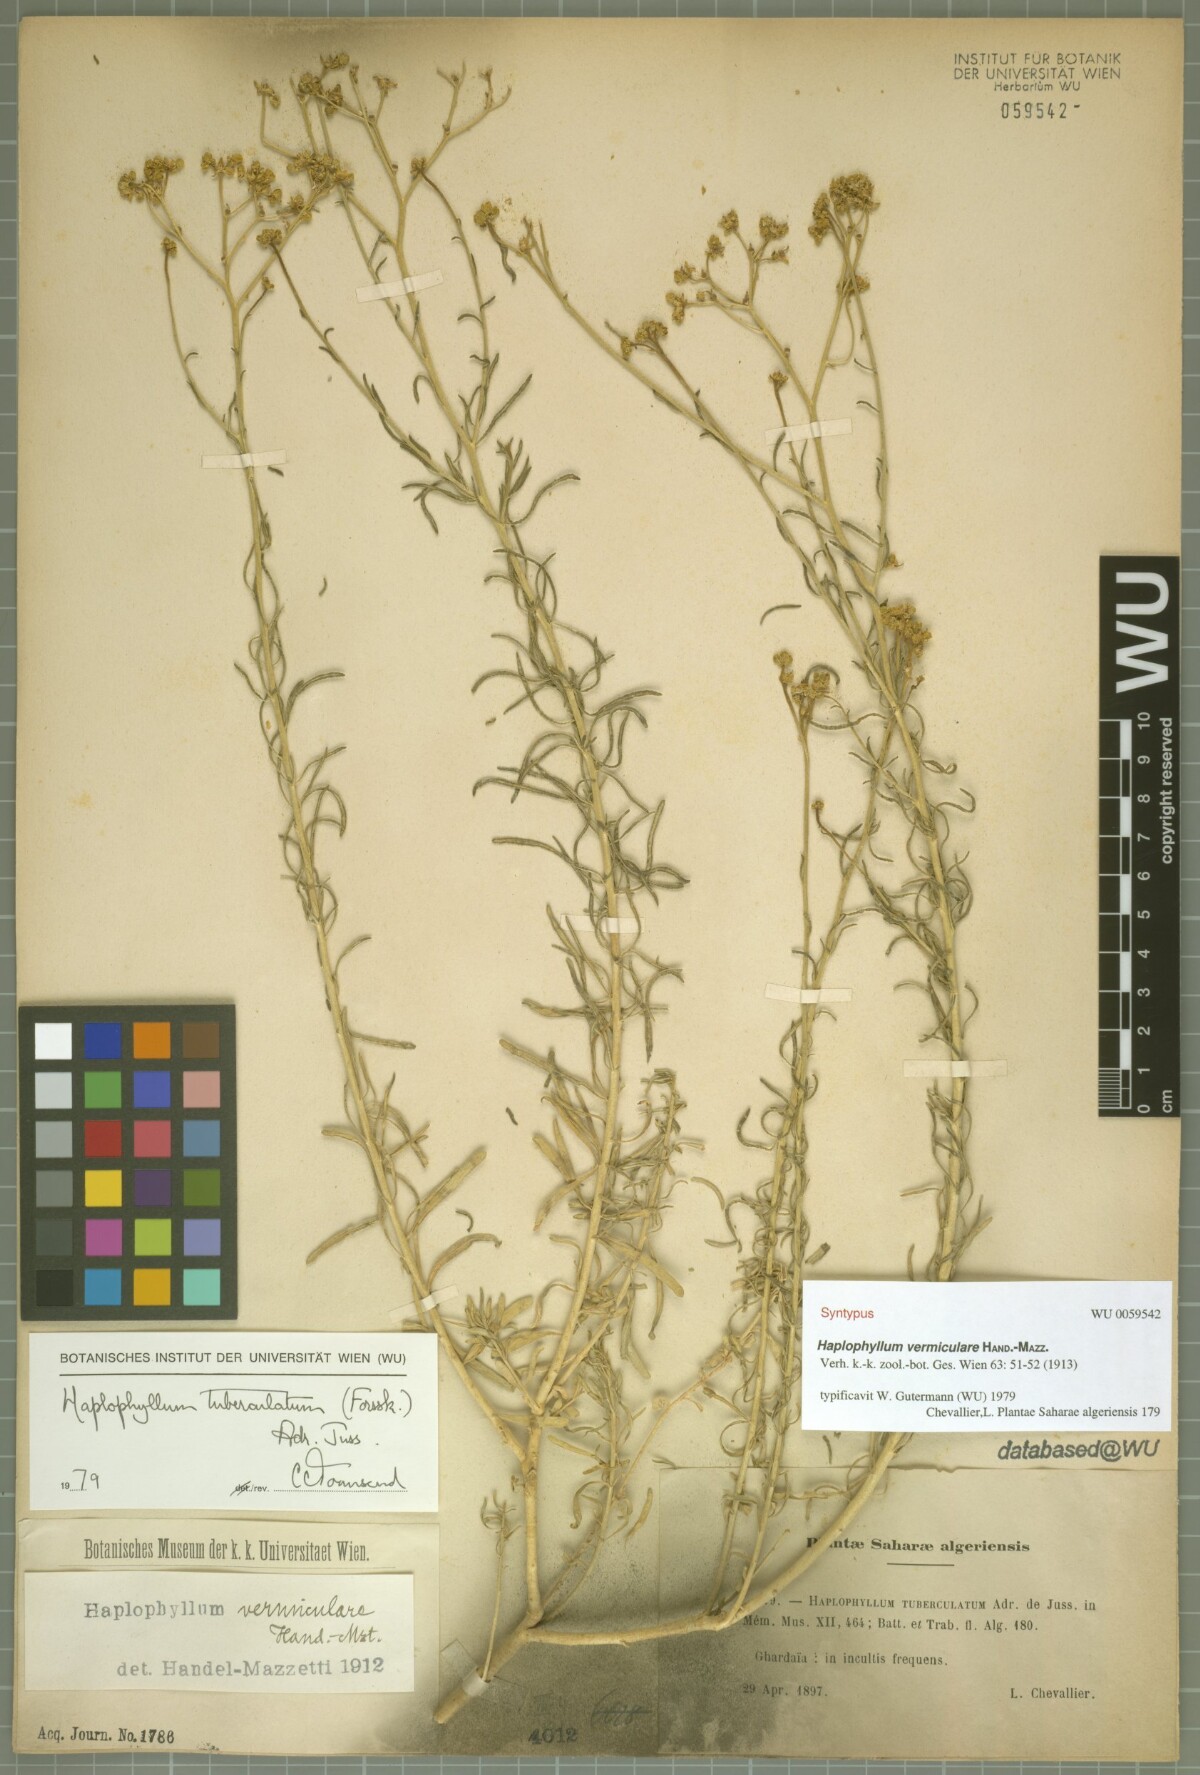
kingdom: Plantae
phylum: Tracheophyta
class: Magnoliopsida
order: Sapindales
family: Rutaceae
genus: Haplophyllum
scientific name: Haplophyllum tuberculatum
